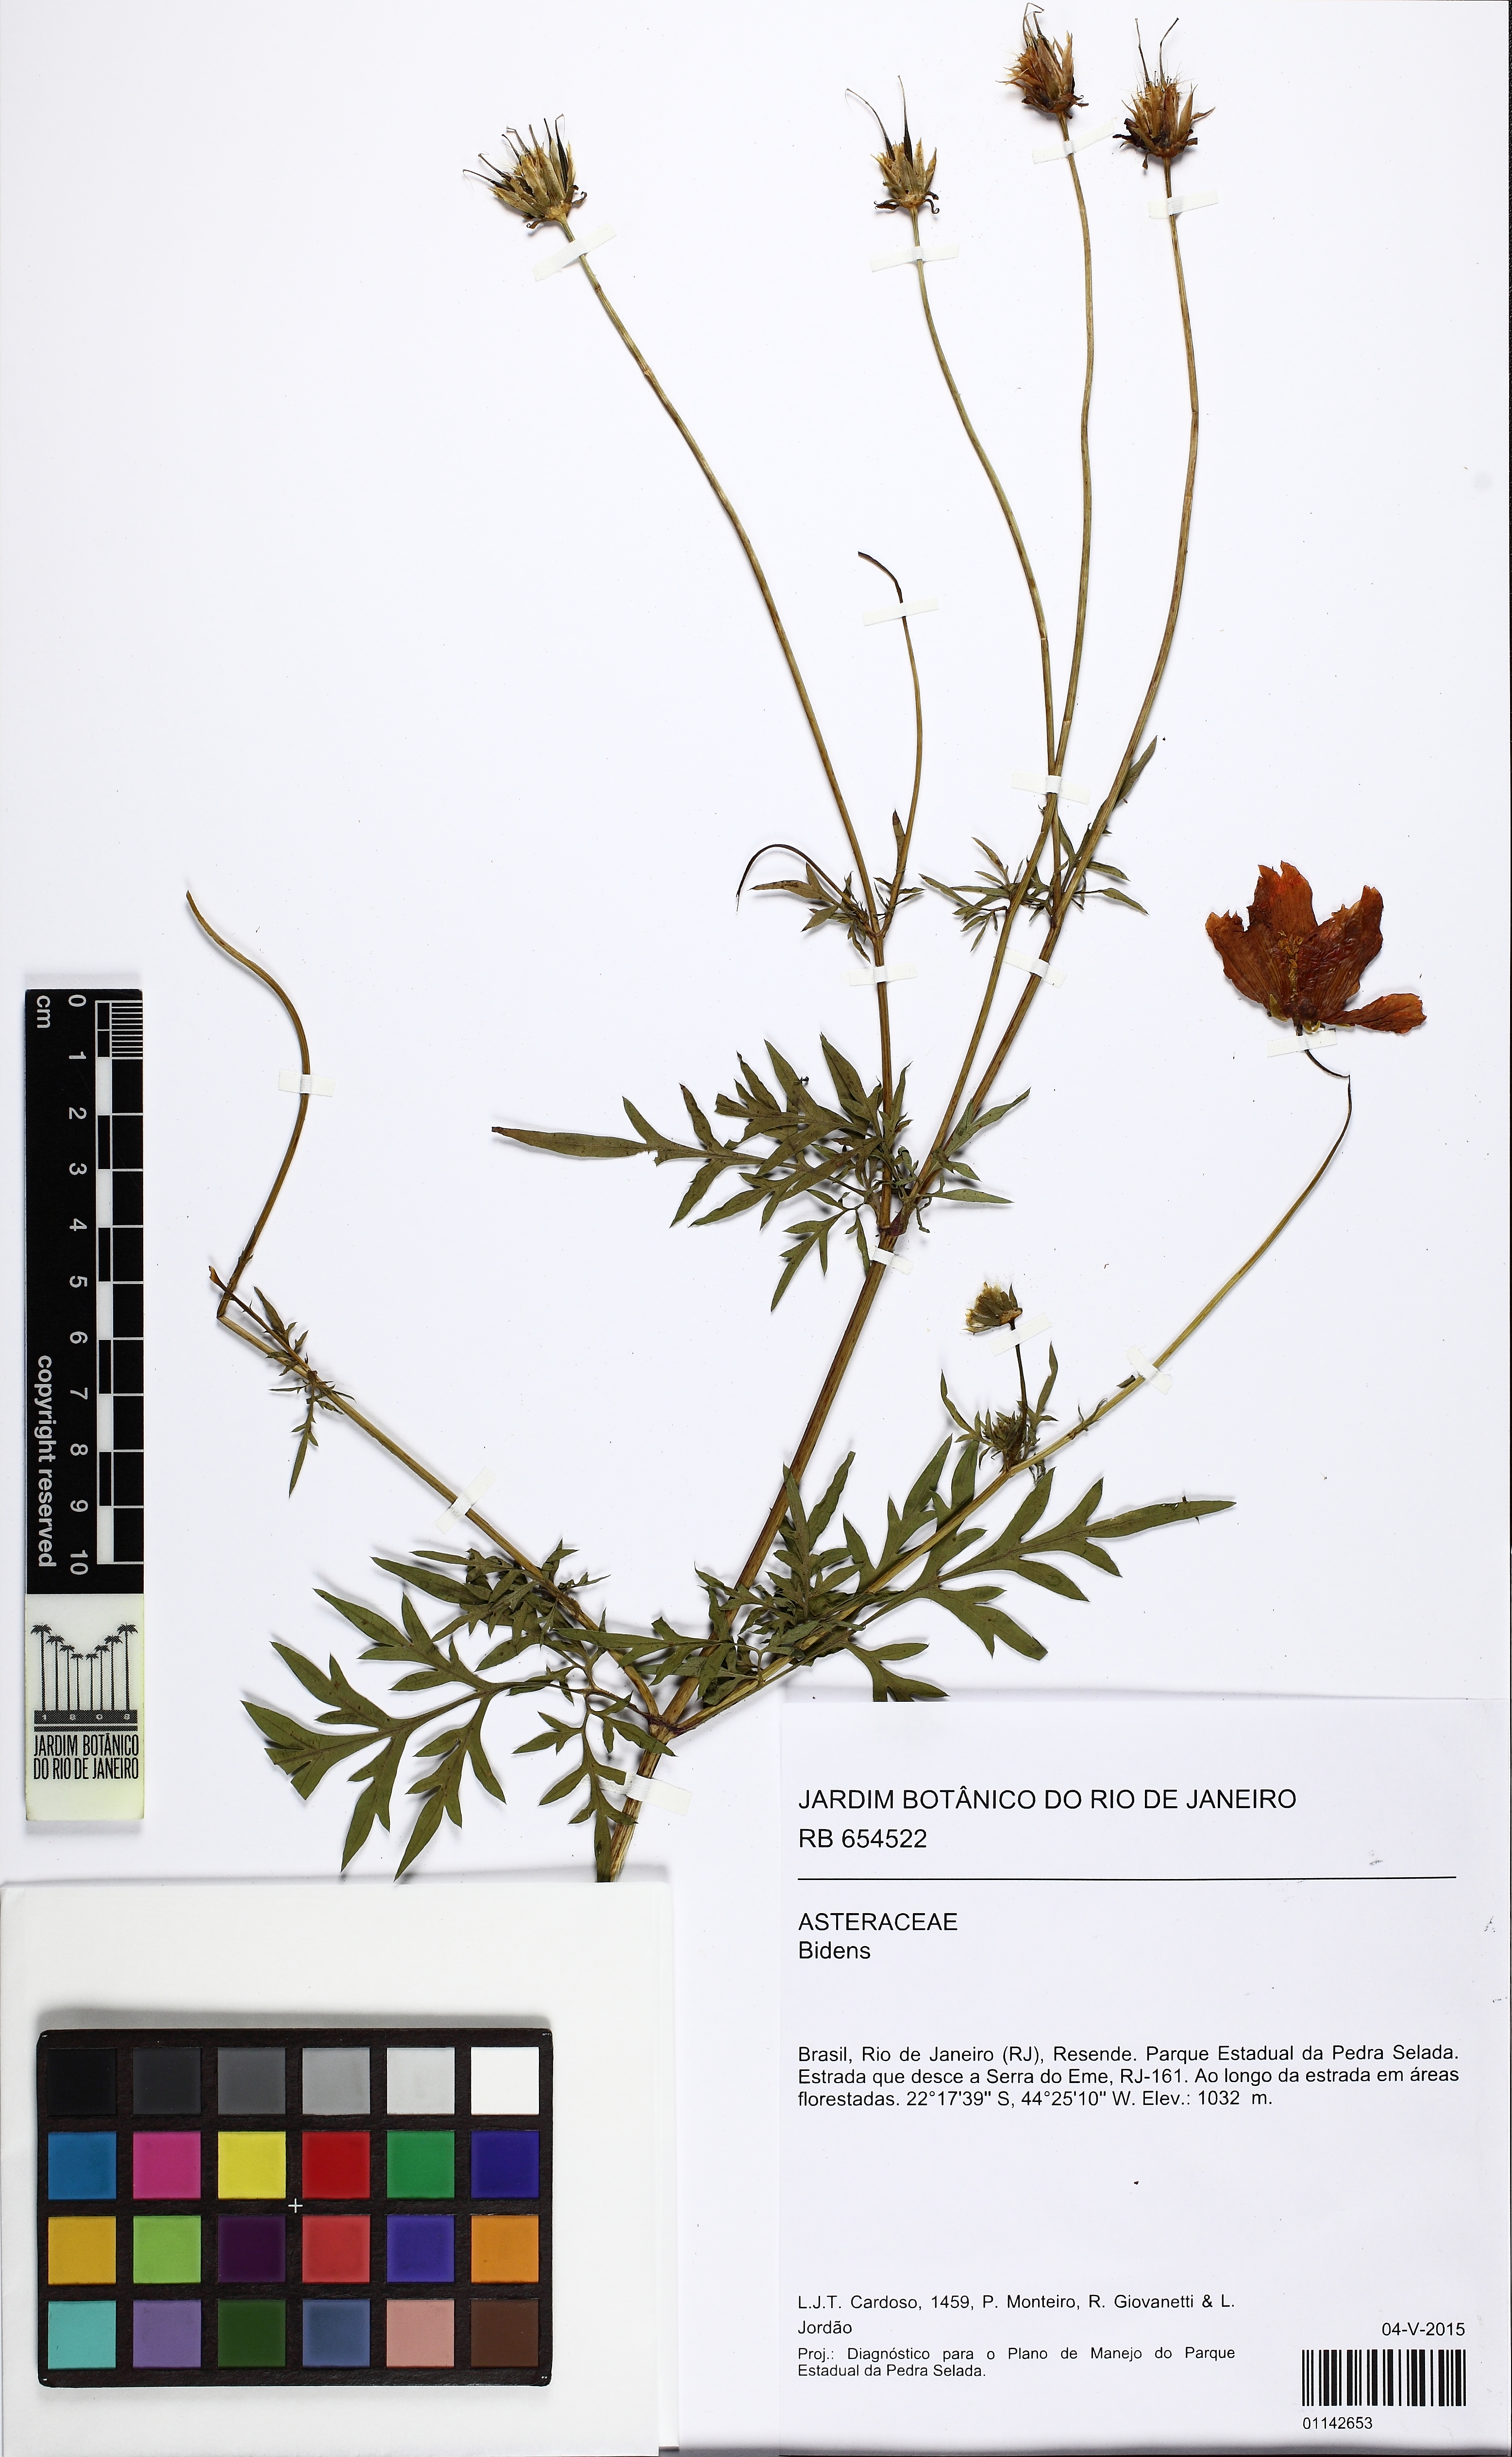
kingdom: Plantae
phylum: Tracheophyta
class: Magnoliopsida
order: Asterales
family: Asteraceae
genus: Cosmos
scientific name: Cosmos sulphureus
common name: Sulphur cosmos
